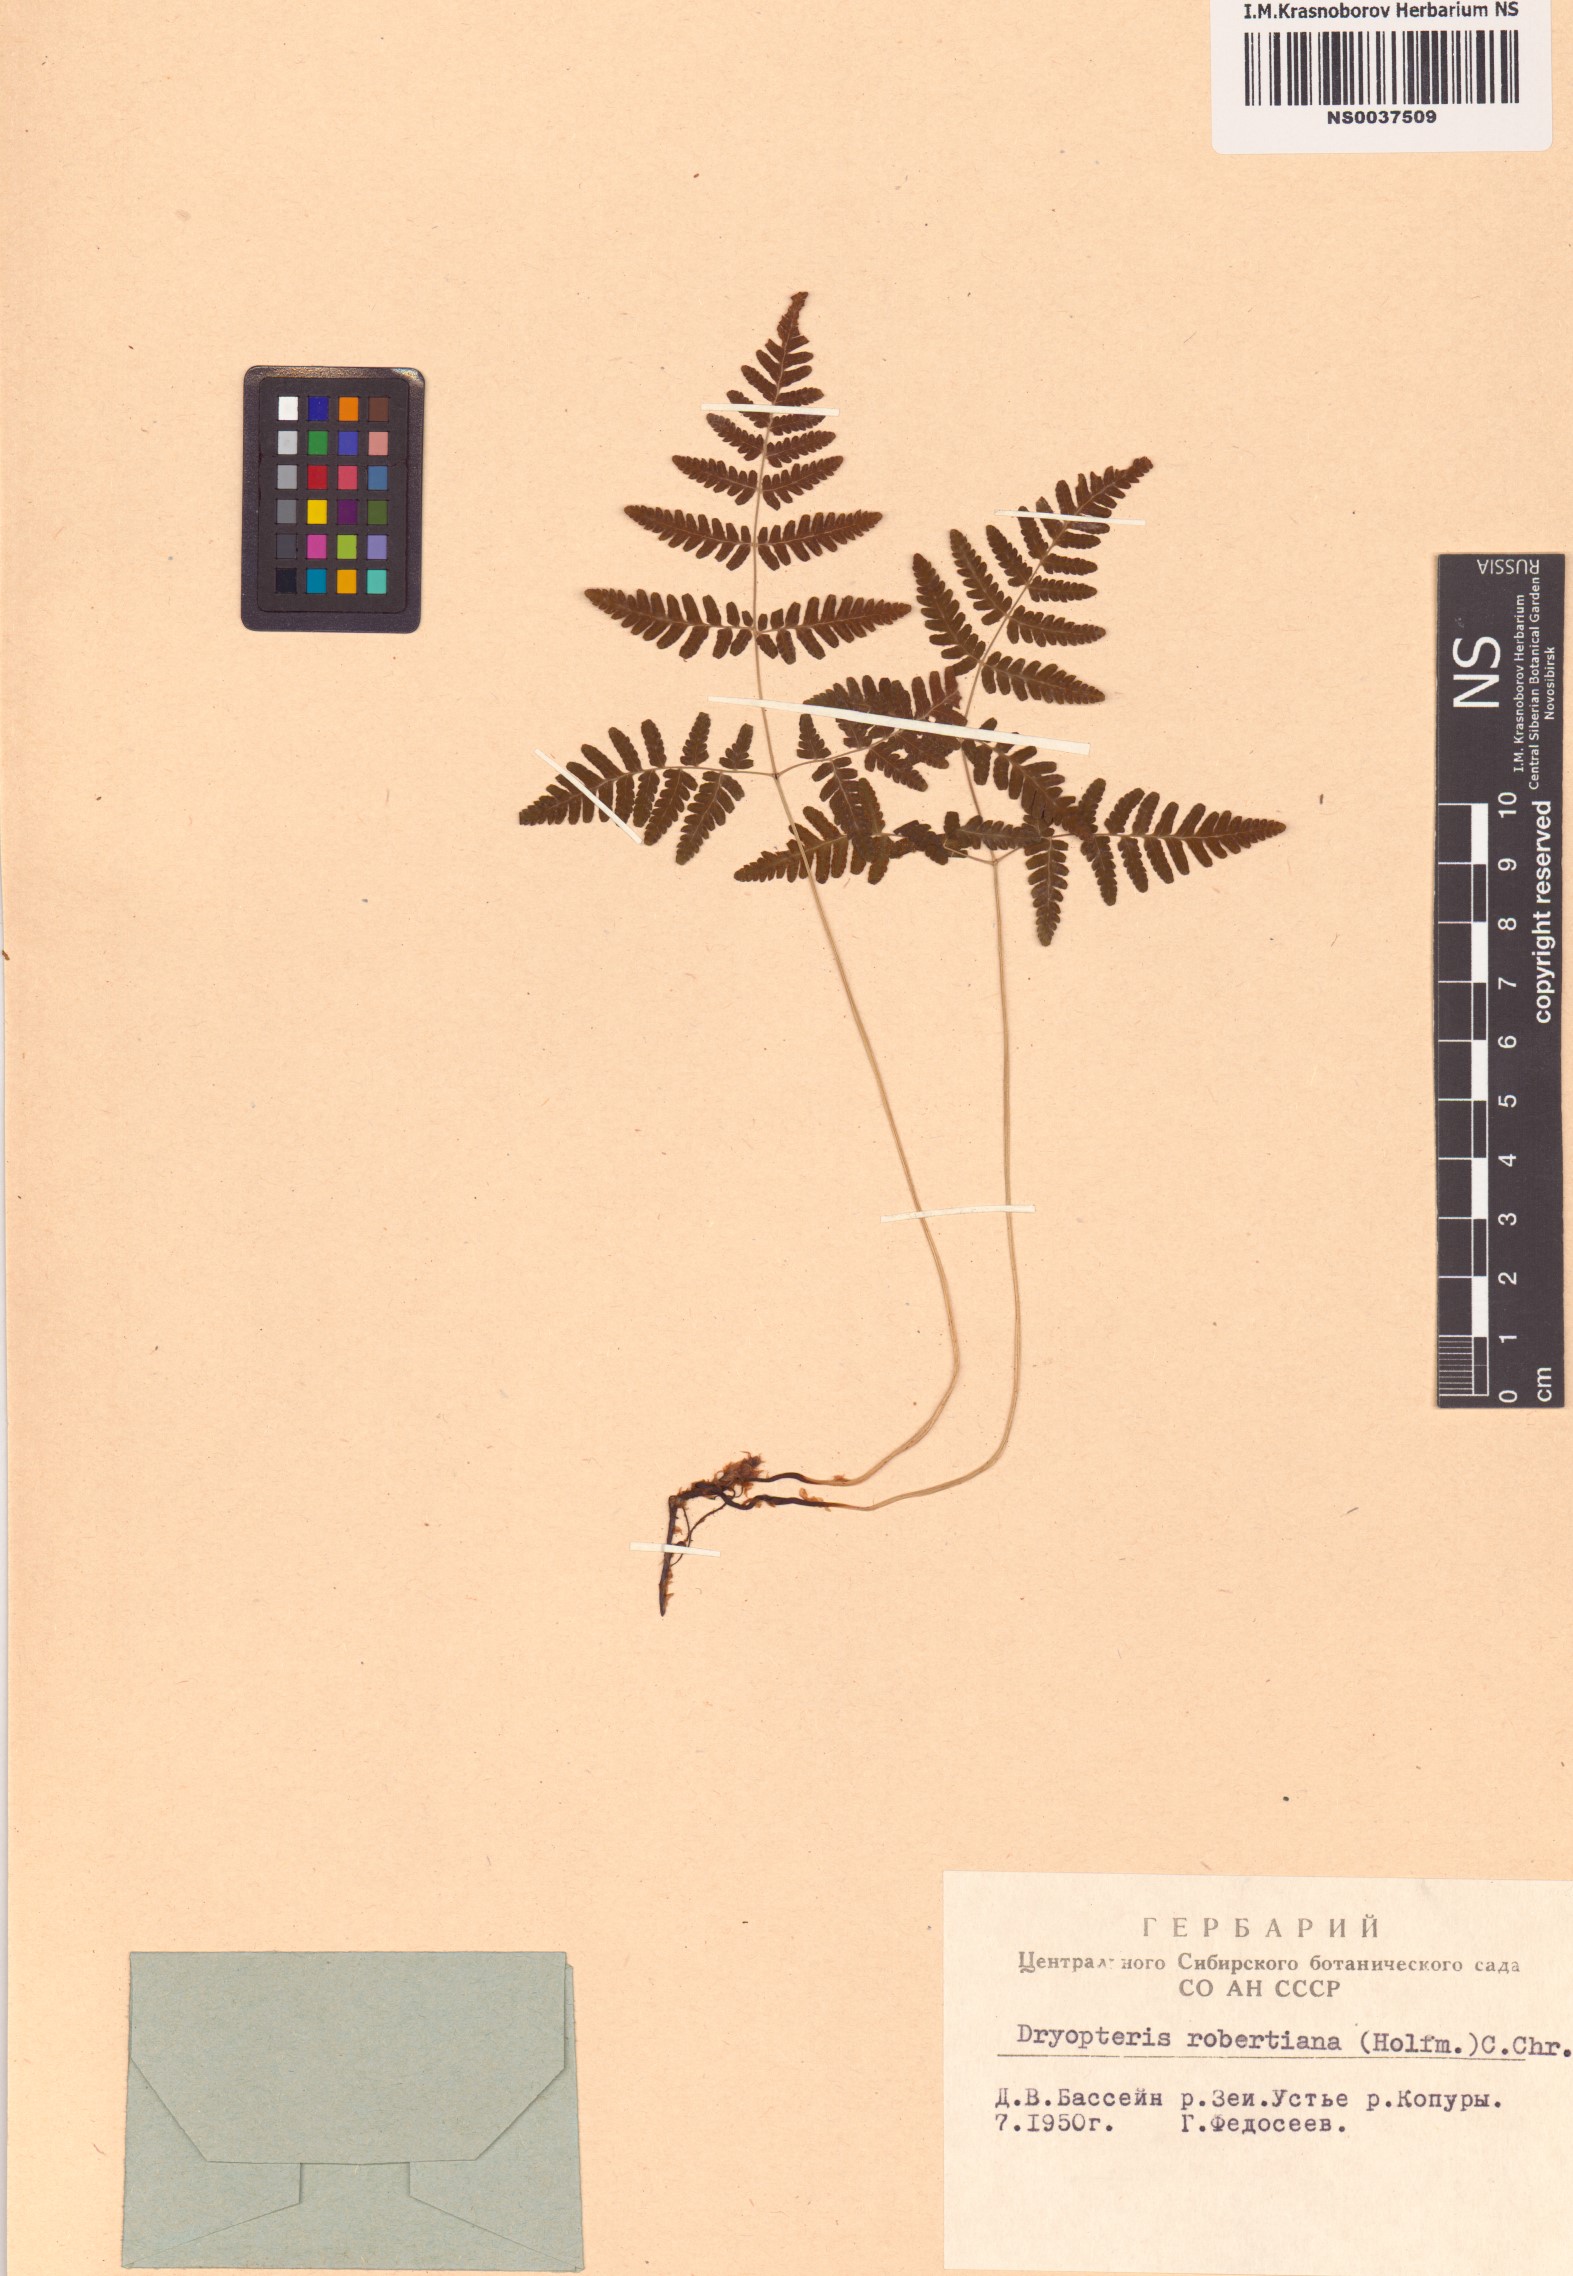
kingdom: Plantae
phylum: Tracheophyta
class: Polypodiopsida
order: Polypodiales
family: Cystopteridaceae
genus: Gymnocarpium
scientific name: Gymnocarpium robertianum
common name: Limestone fern
